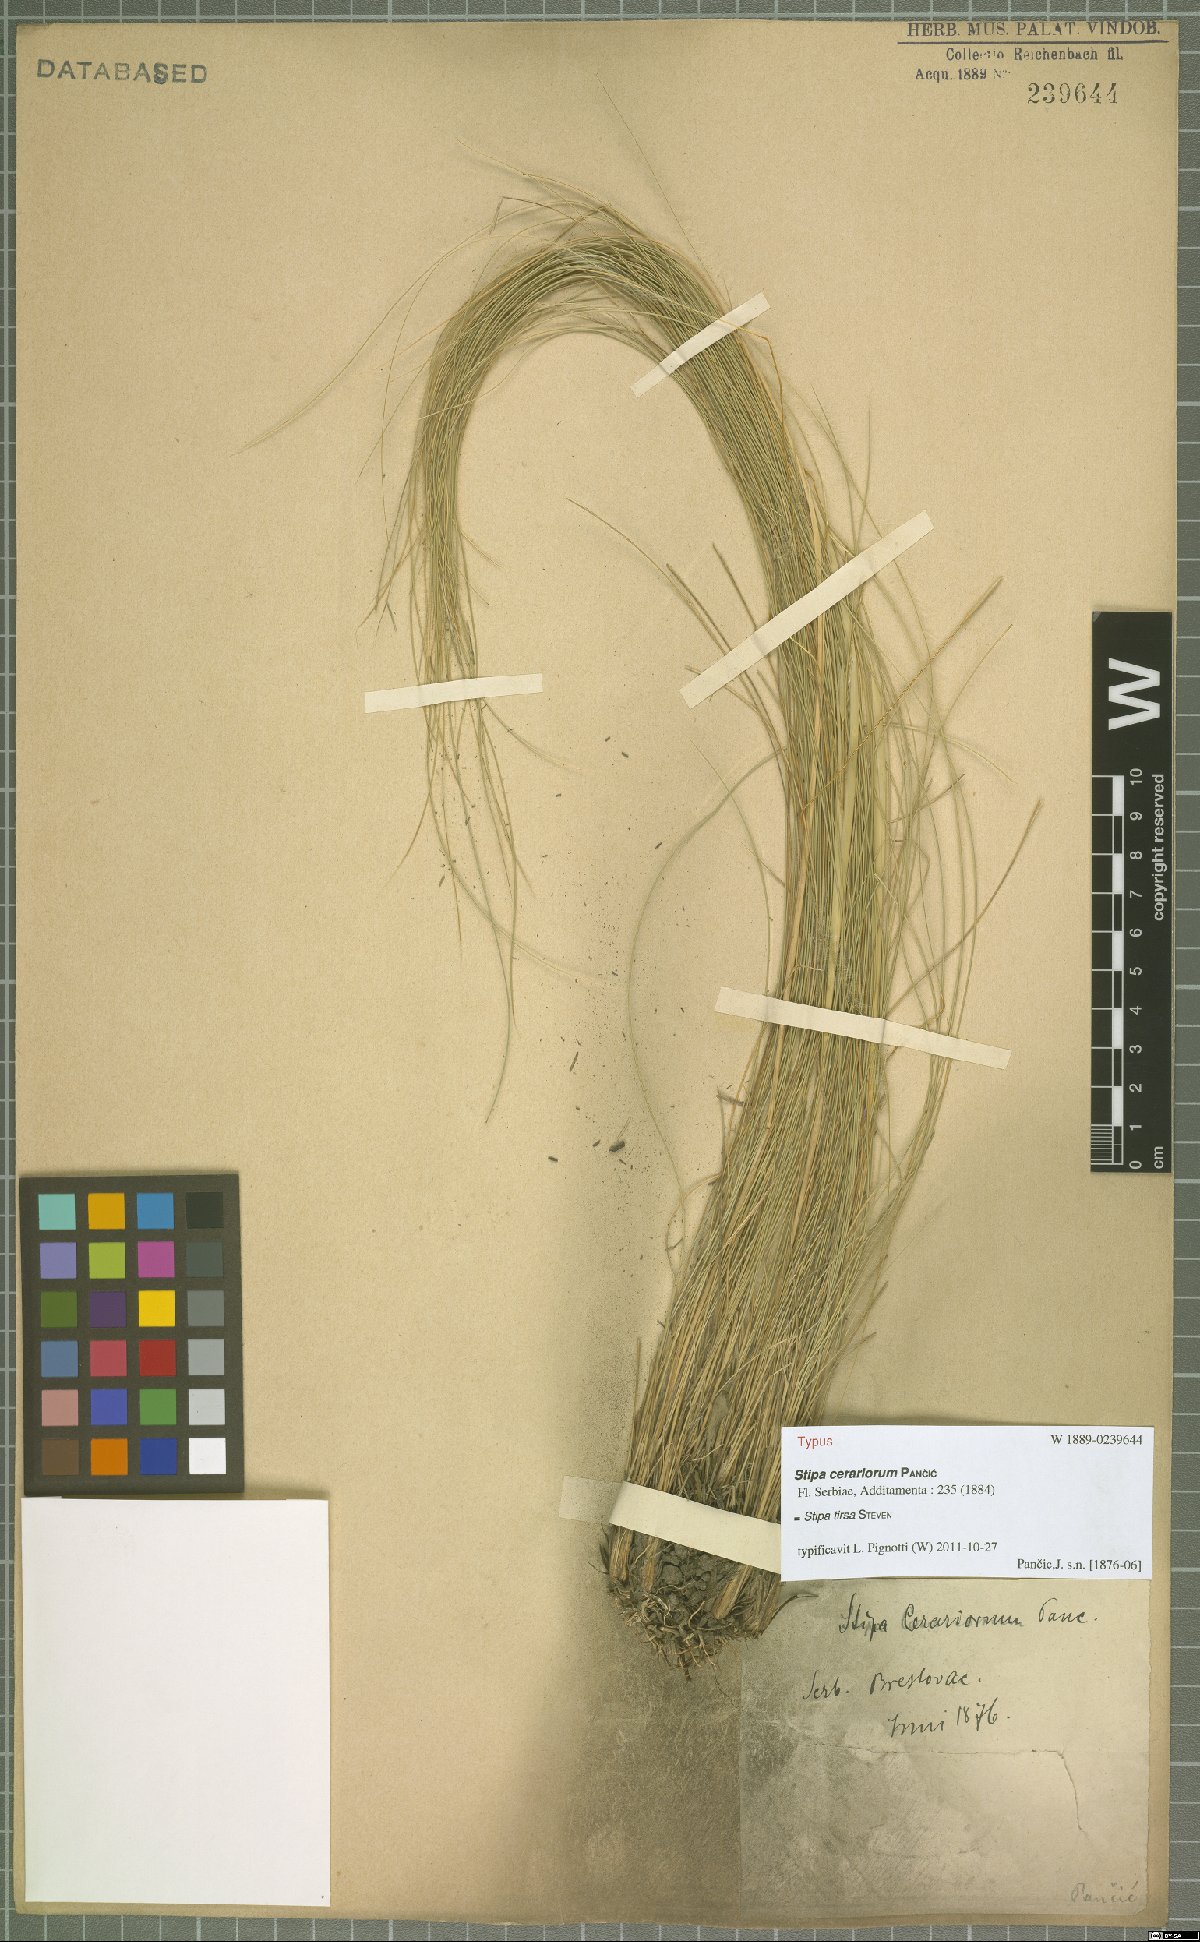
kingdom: Plantae
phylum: Tracheophyta
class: Liliopsida
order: Poales
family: Poaceae
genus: Stipa
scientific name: Stipa tirsa
